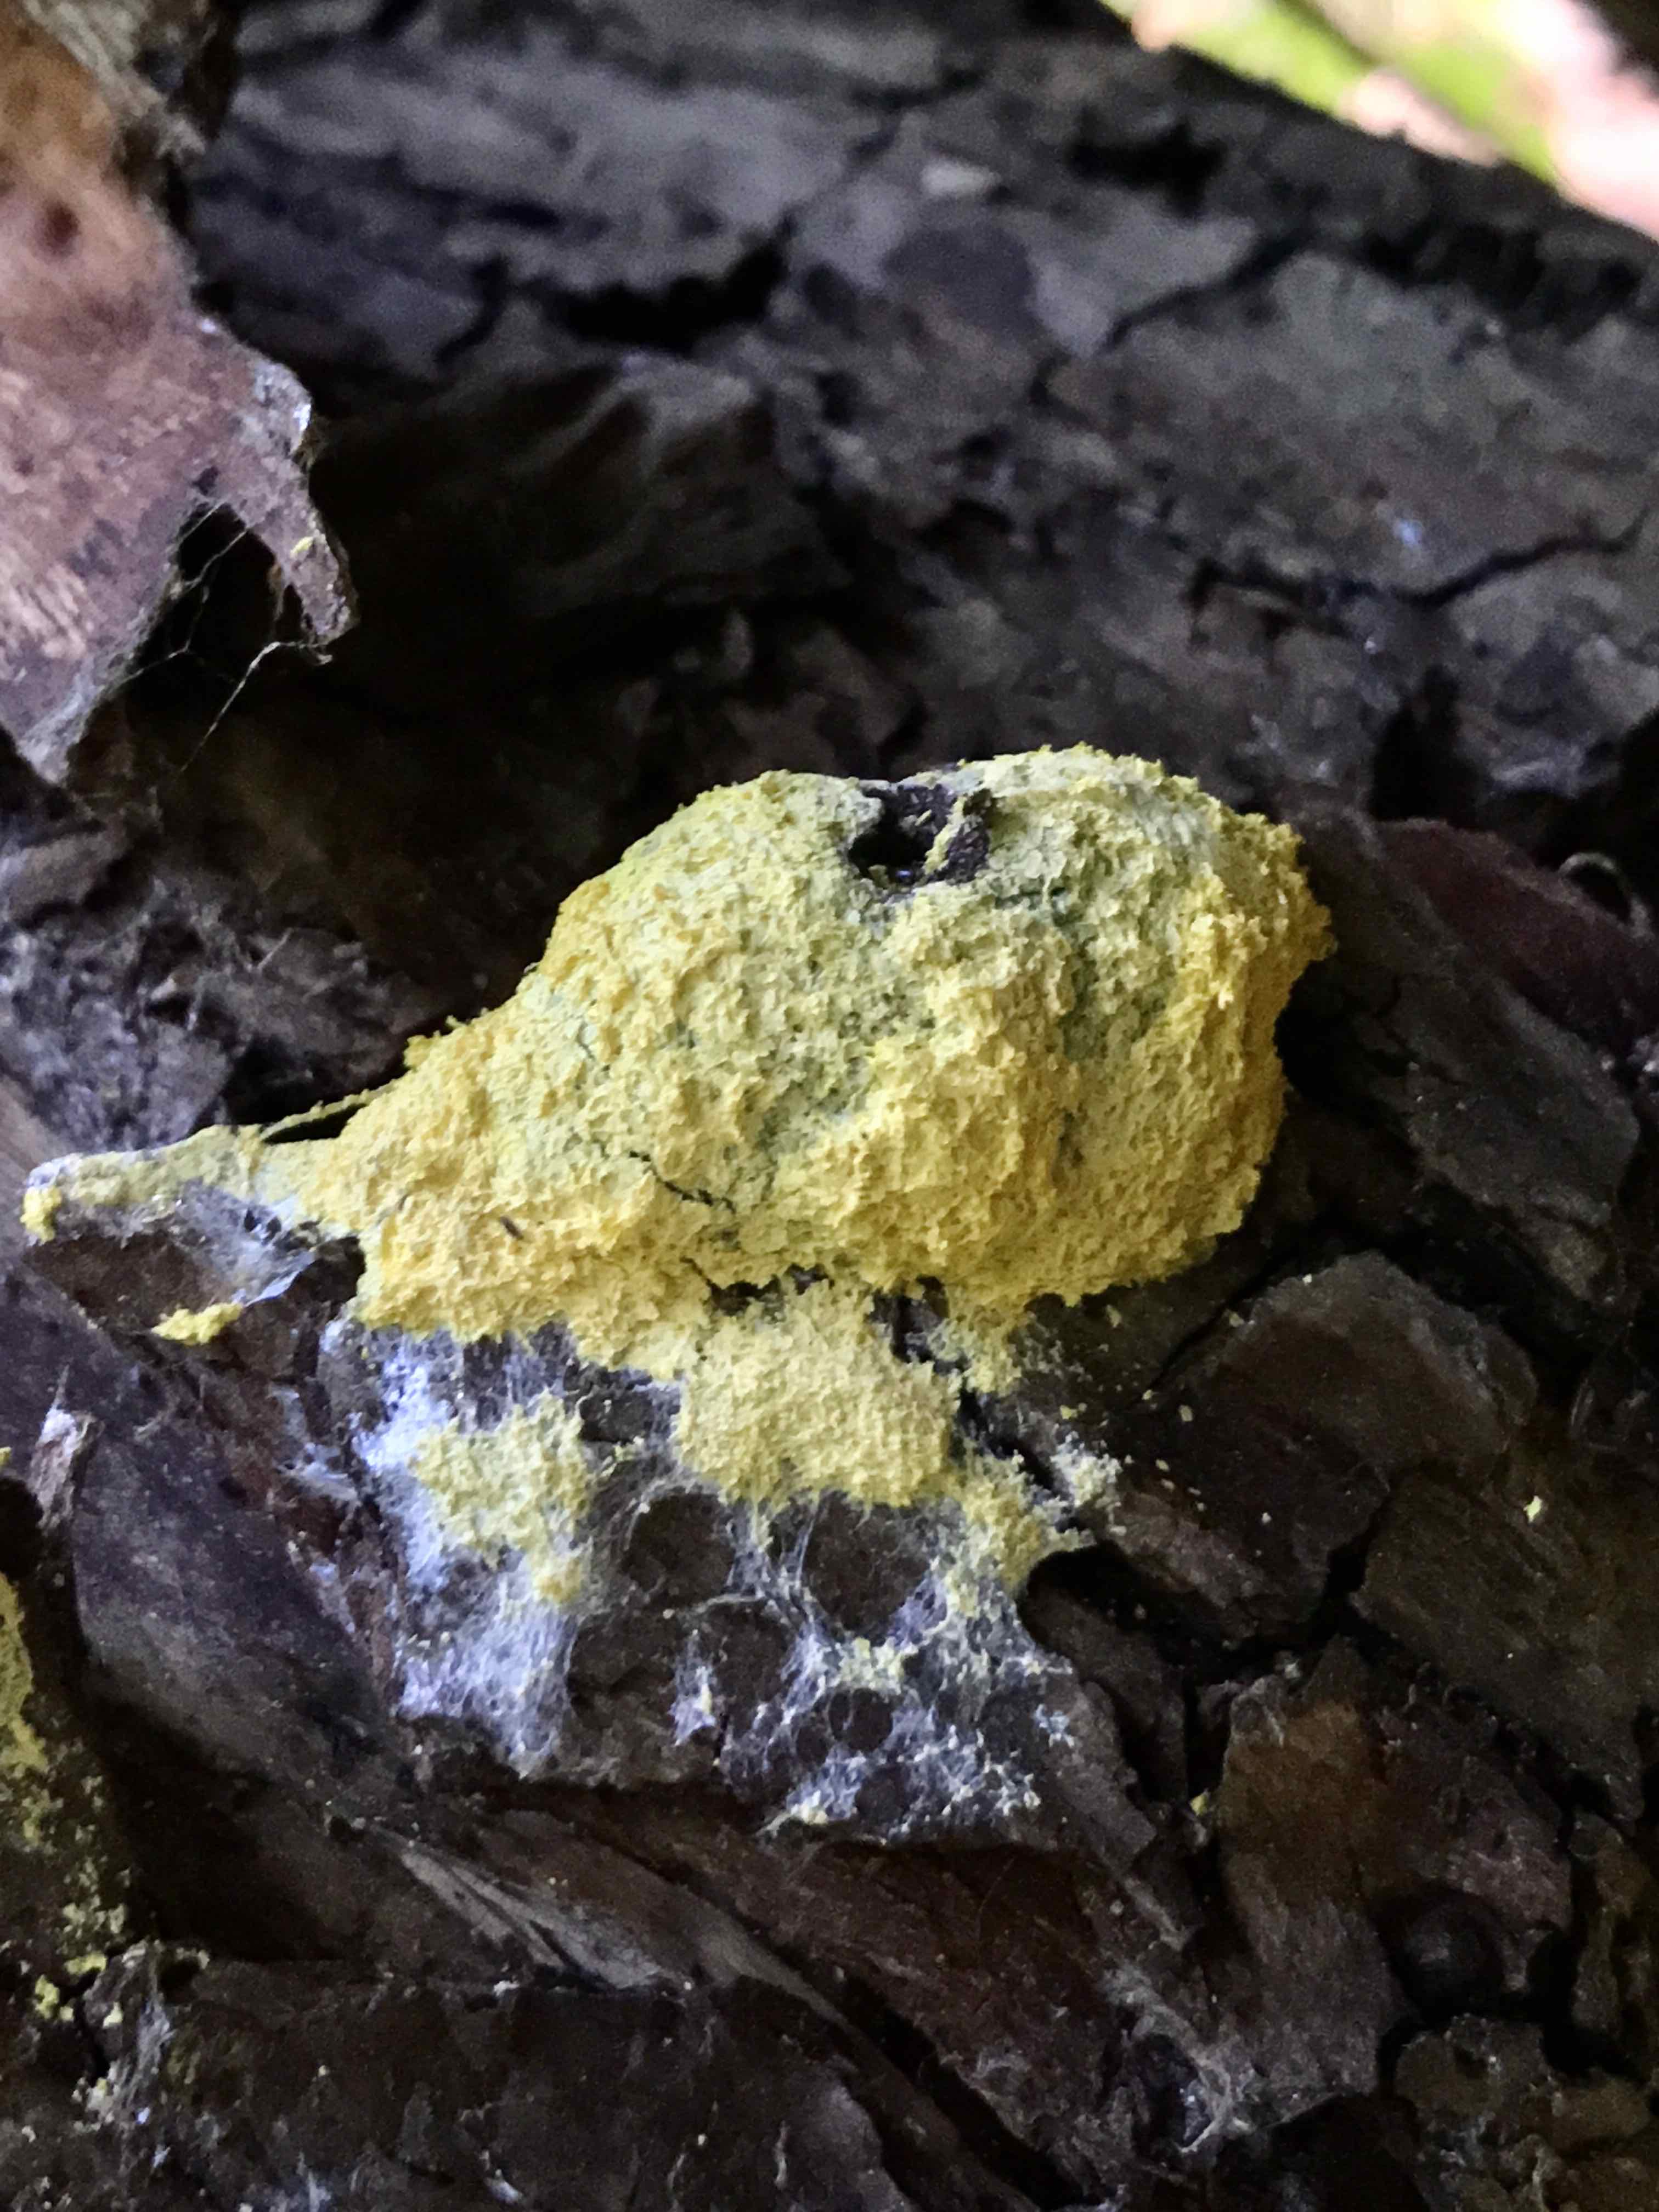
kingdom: Protozoa
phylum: Mycetozoa
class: Myxomycetes
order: Physarales
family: Physaraceae
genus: Fuligo
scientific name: Fuligo septica
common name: gul troldsmør
